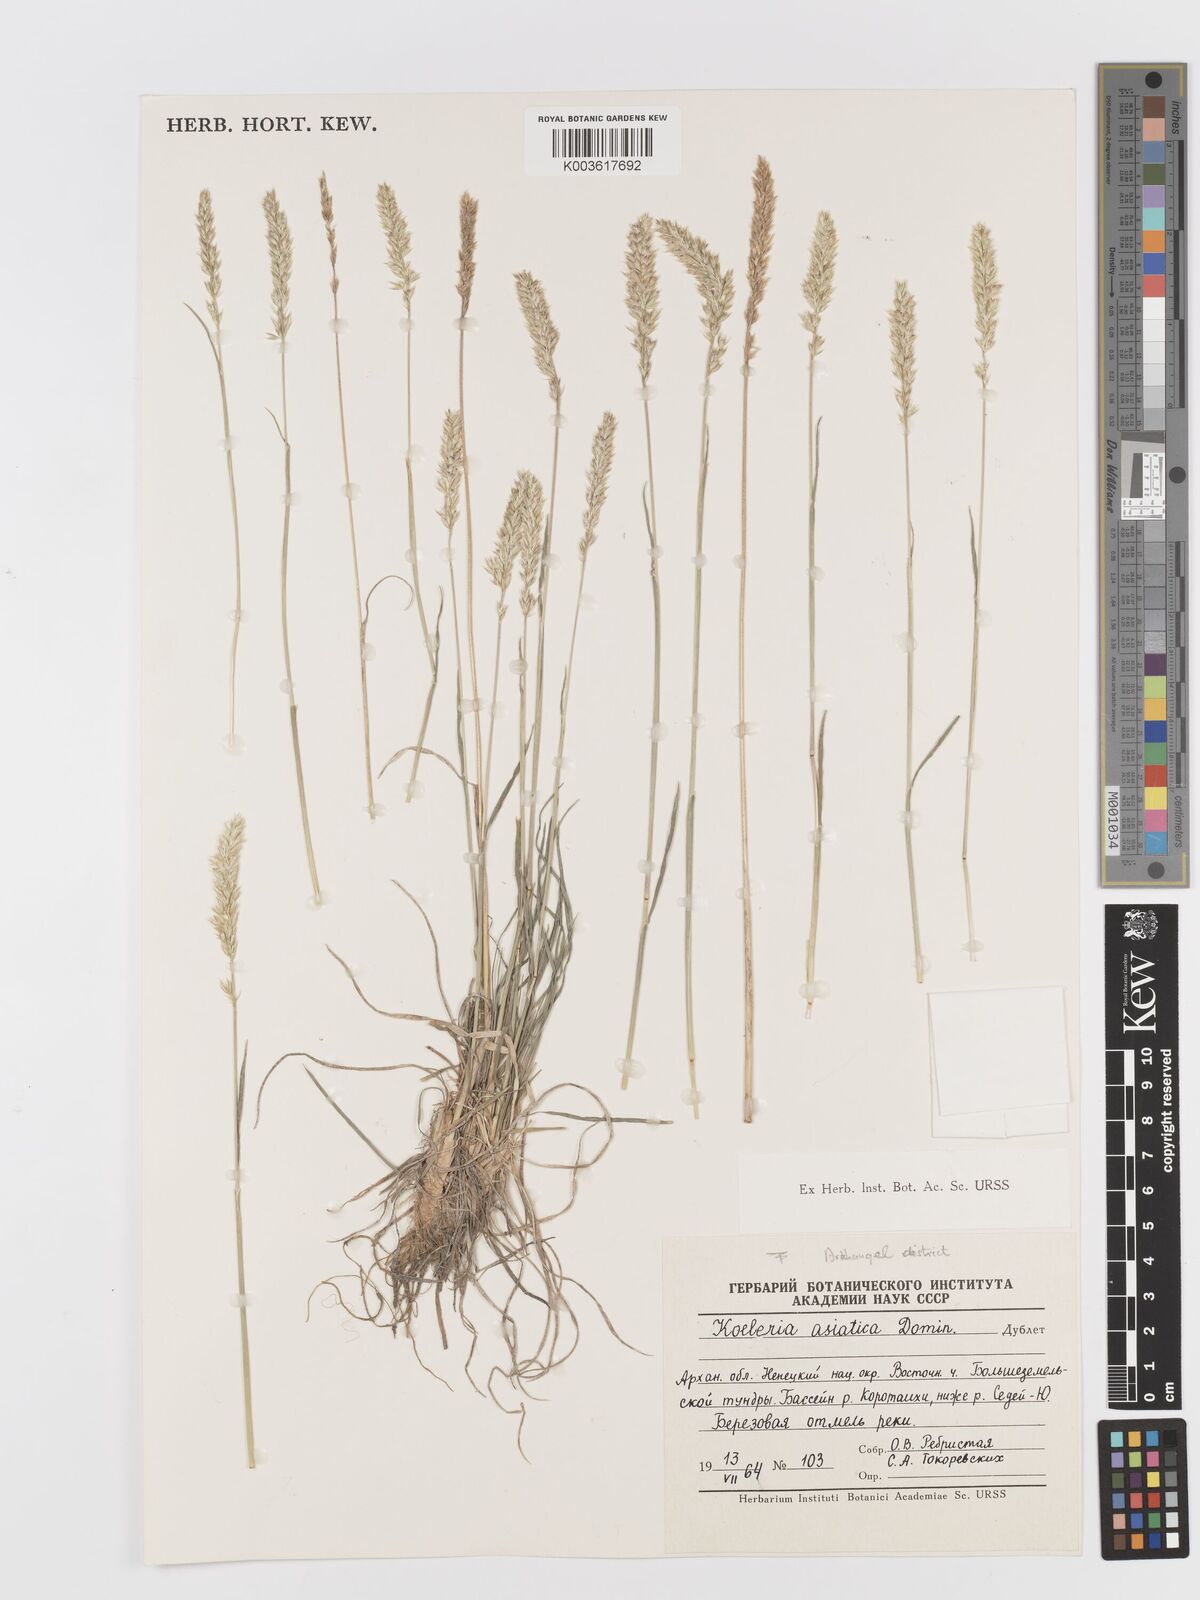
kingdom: Plantae
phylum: Tracheophyta
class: Liliopsida
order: Poales
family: Poaceae
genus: Koeleria
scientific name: Koeleria asiatica
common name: Eurasian junegrass
